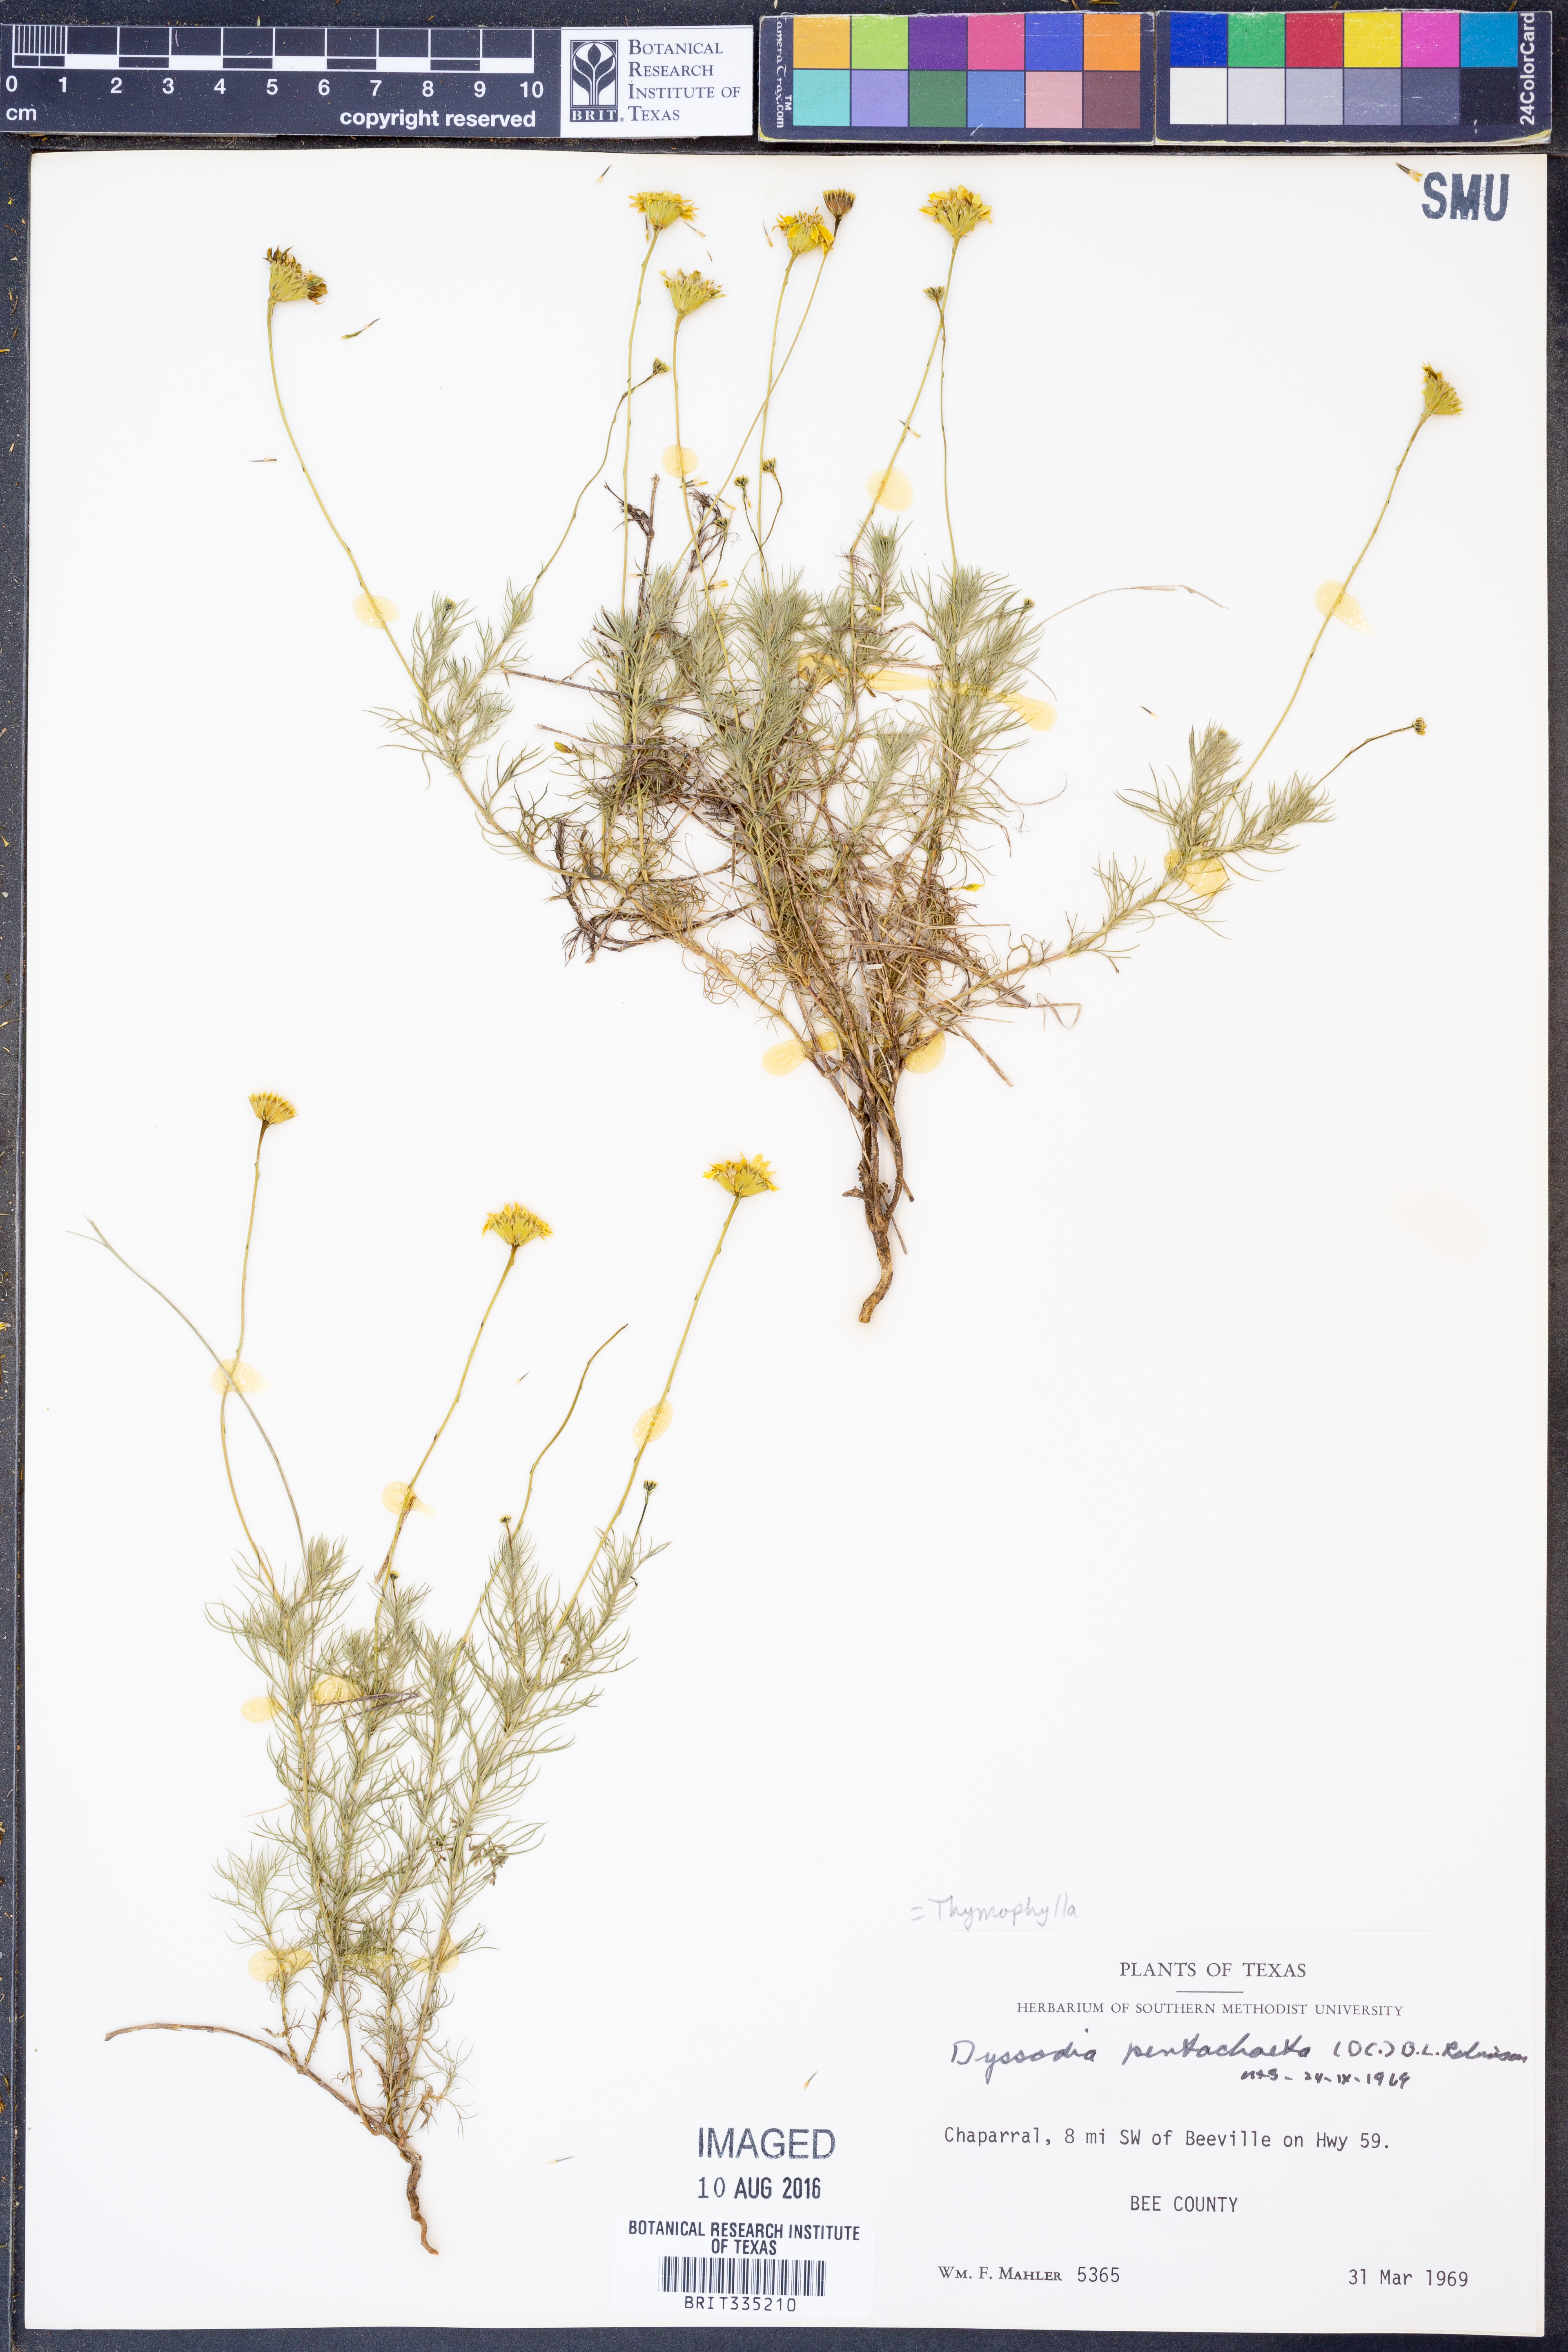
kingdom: Plantae
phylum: Tracheophyta
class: Magnoliopsida
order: Asterales
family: Asteraceae
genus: Thymophylla
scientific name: Thymophylla pentachaeta
